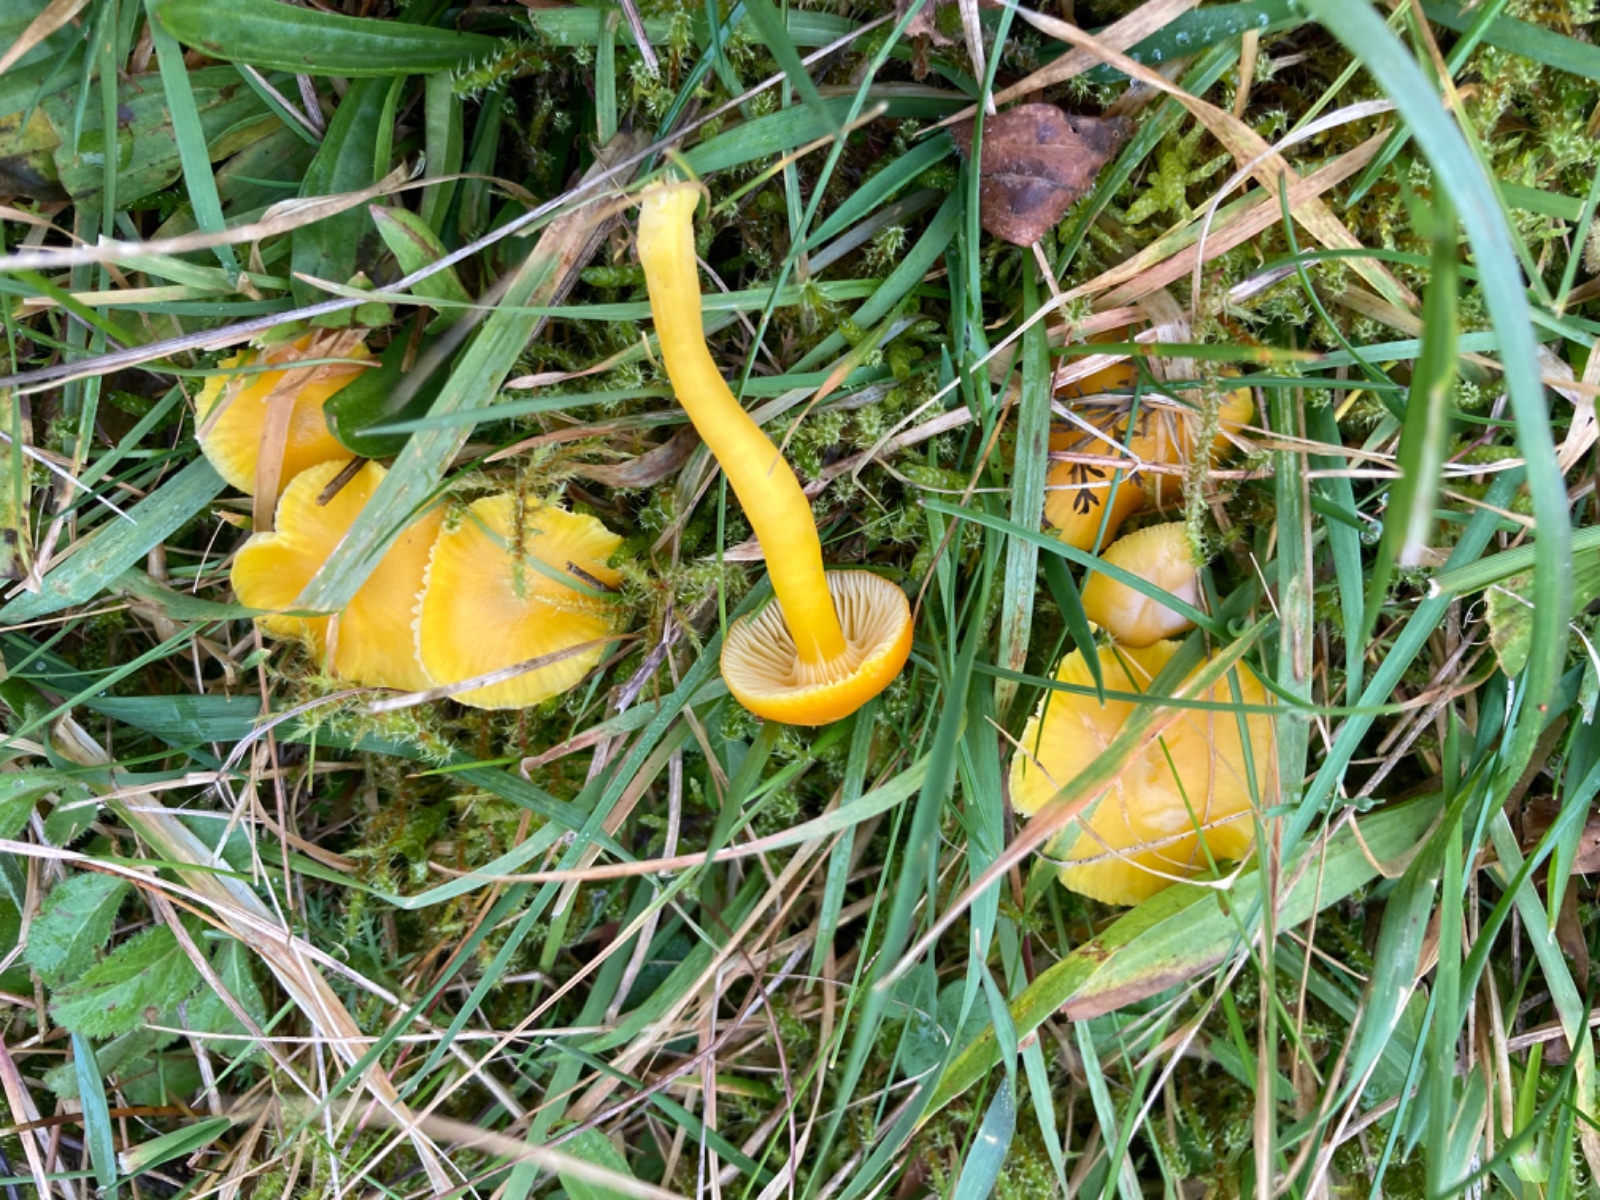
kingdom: Fungi
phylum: Basidiomycota
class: Agaricomycetes
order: Agaricales
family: Hygrophoraceae
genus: Hygrocybe
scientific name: Hygrocybe ceracea
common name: voksgul vokshat
